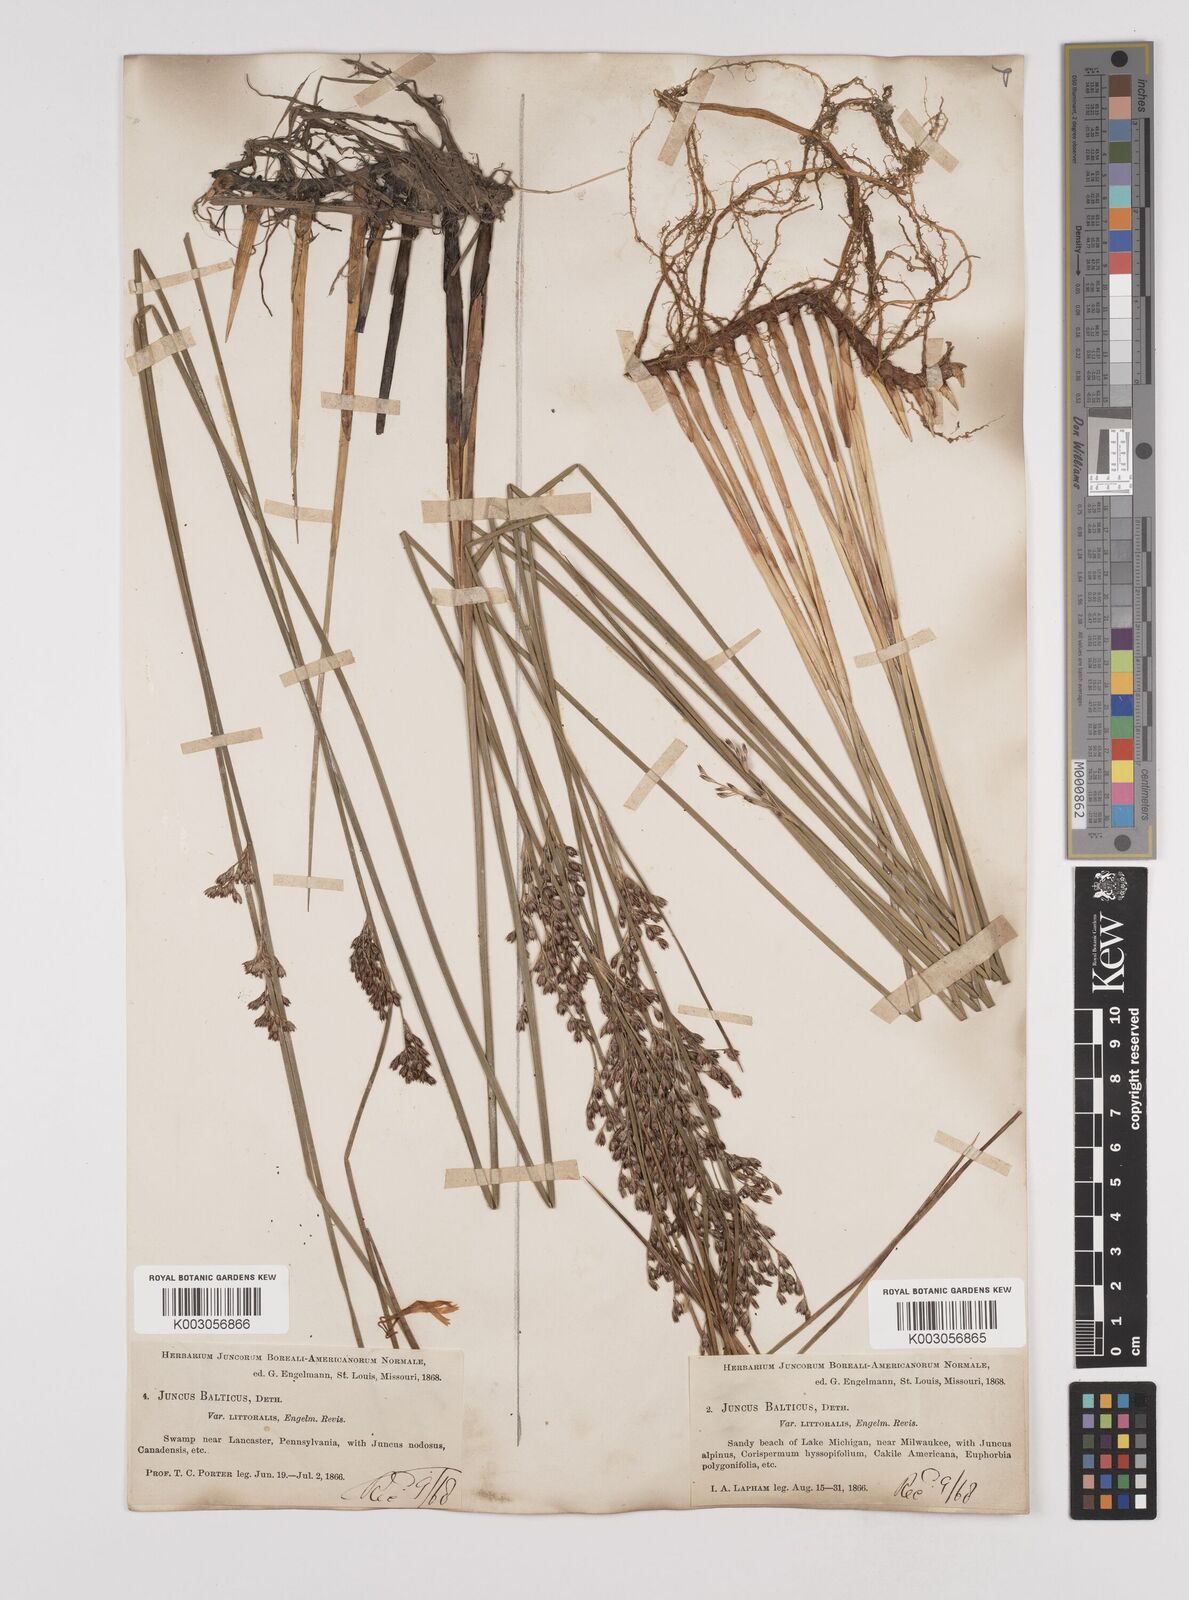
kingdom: Plantae
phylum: Tracheophyta
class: Liliopsida
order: Poales
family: Juncaceae
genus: Juncus
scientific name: Juncus balticus
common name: Baltic rush
